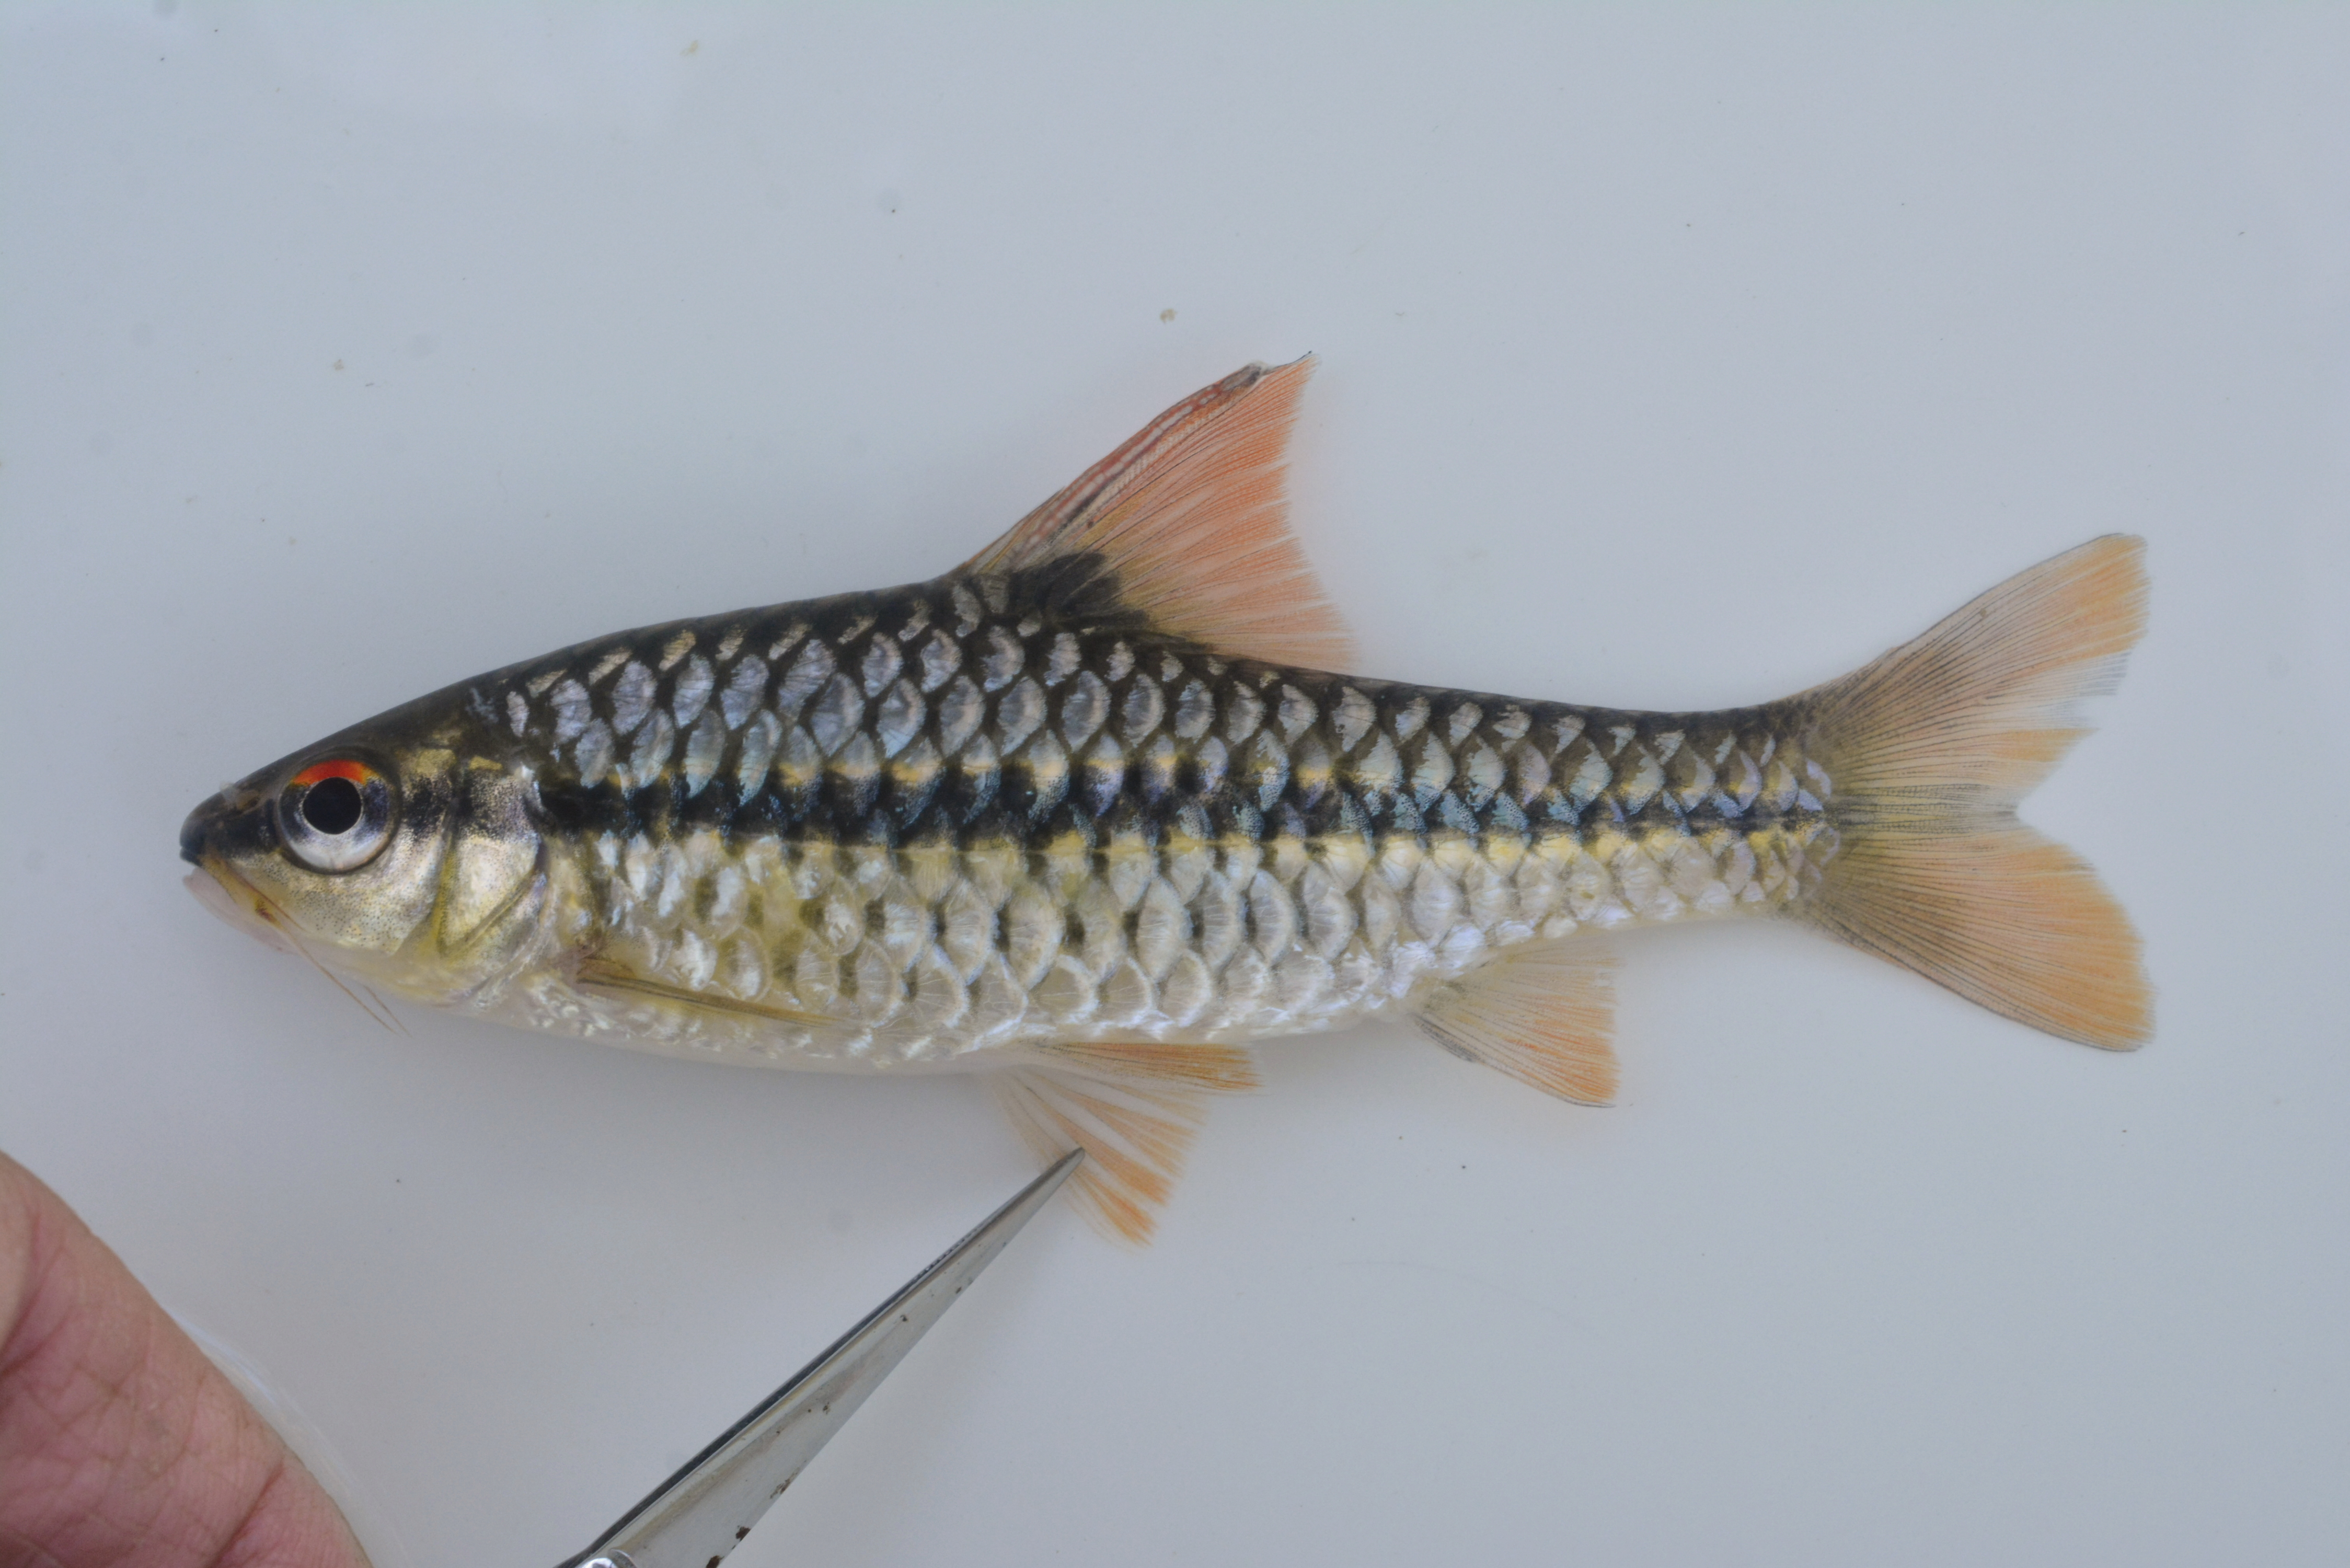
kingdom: Animalia
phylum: Chordata
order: Cypriniformes
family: Cyprinidae
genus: Enteromius
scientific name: Enteromius
